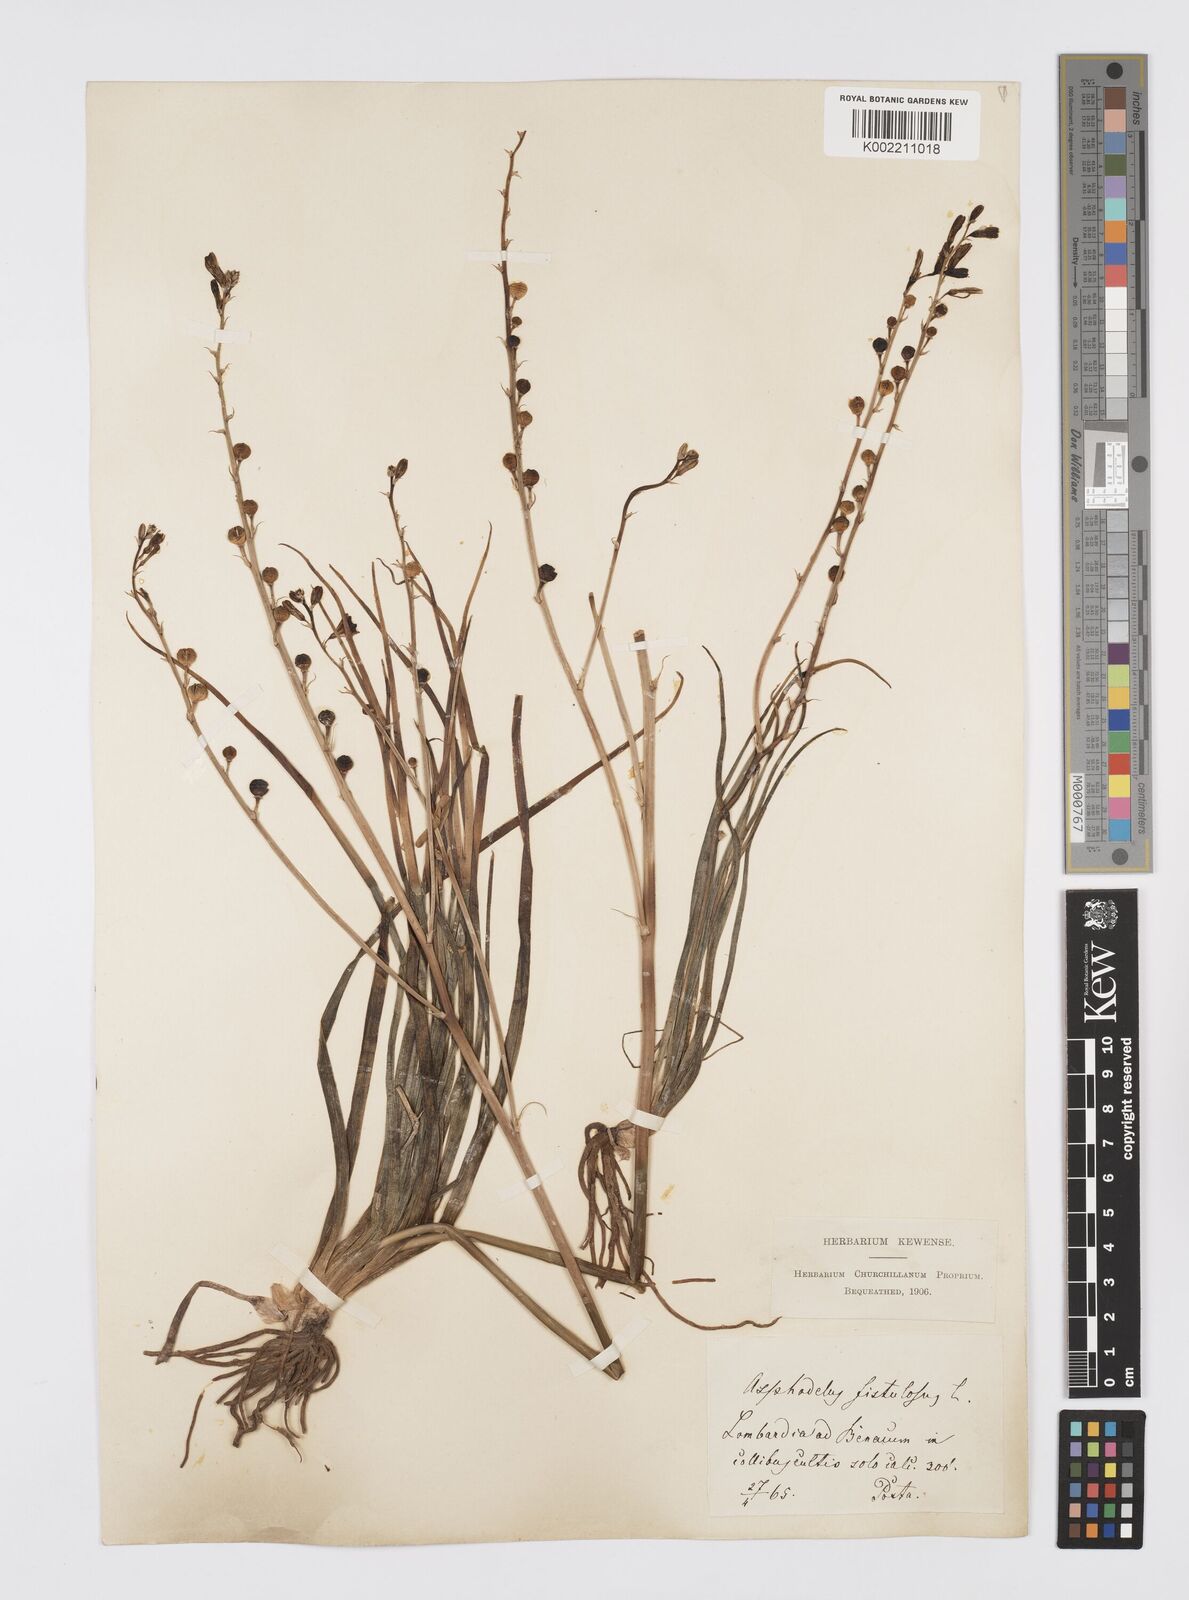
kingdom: Plantae
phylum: Tracheophyta
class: Liliopsida
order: Asparagales
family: Asphodelaceae
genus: Asphodelus
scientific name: Asphodelus fistulosus
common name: Onionweed
